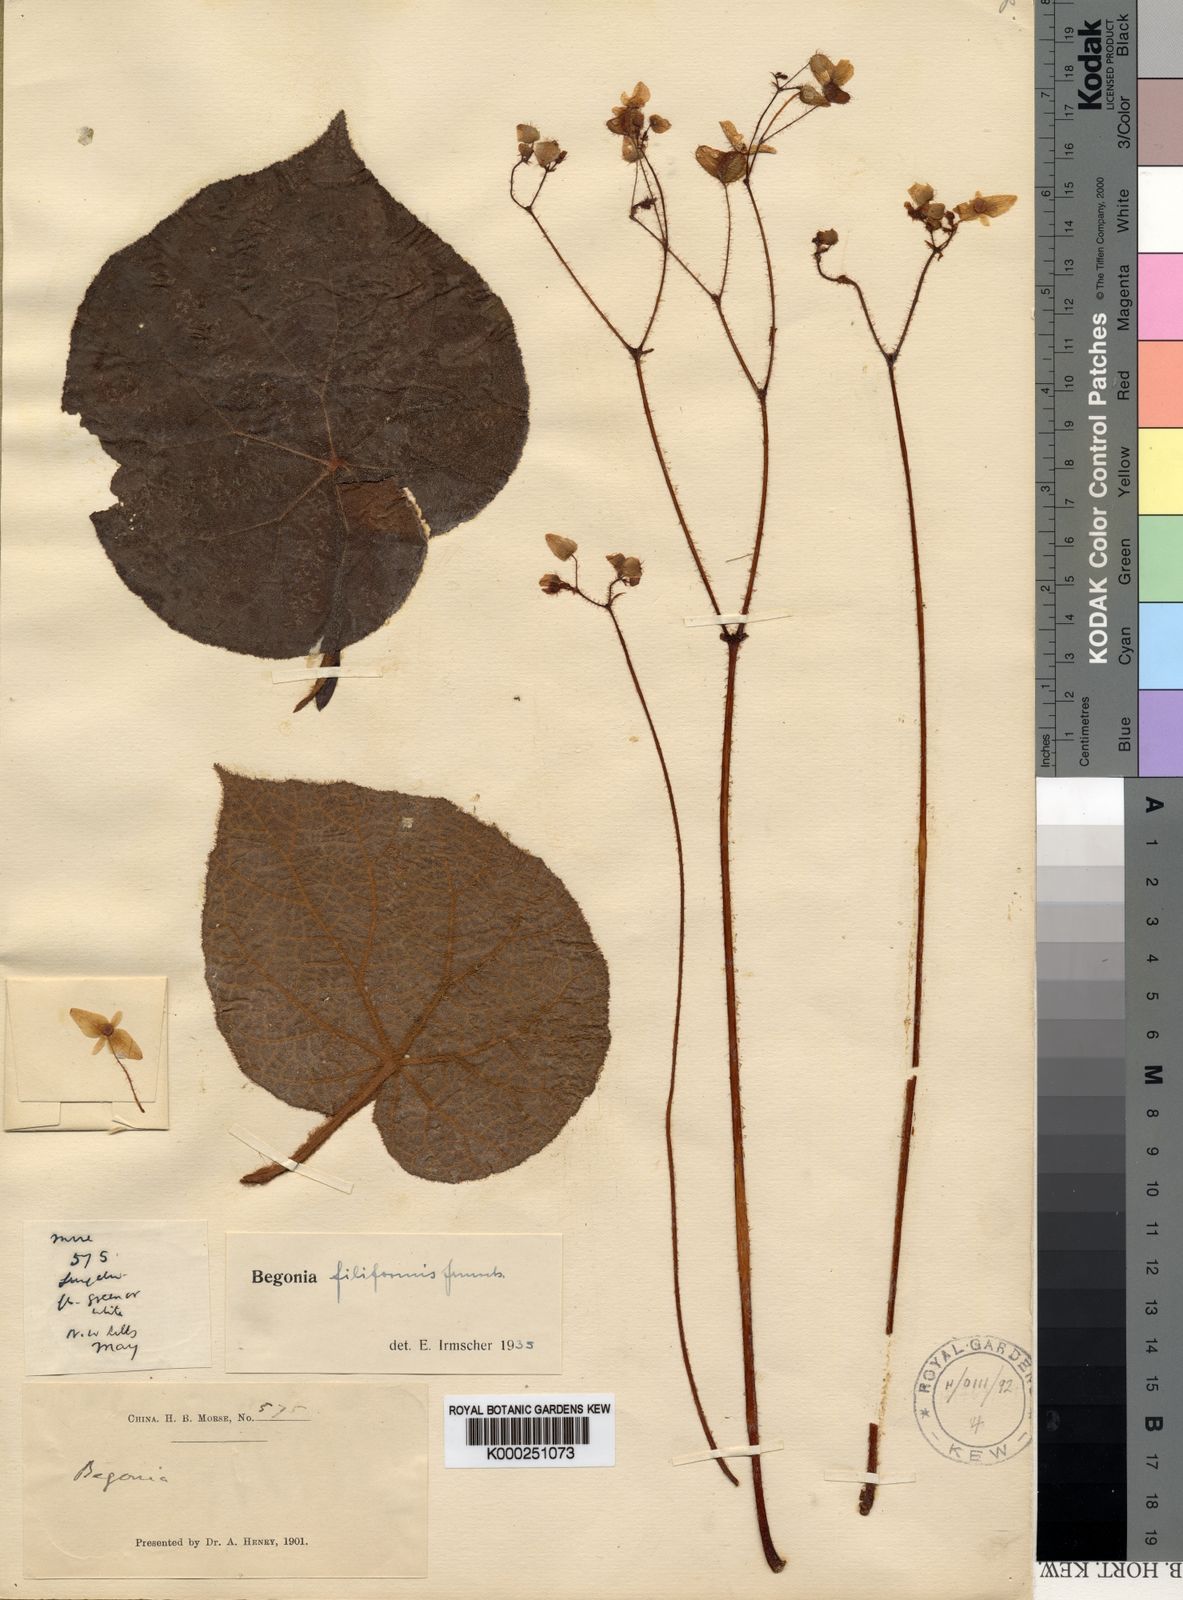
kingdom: Plantae
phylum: Tracheophyta
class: Magnoliopsida
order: Cucurbitales
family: Begoniaceae
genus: Begonia
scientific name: Begonia filiformis
